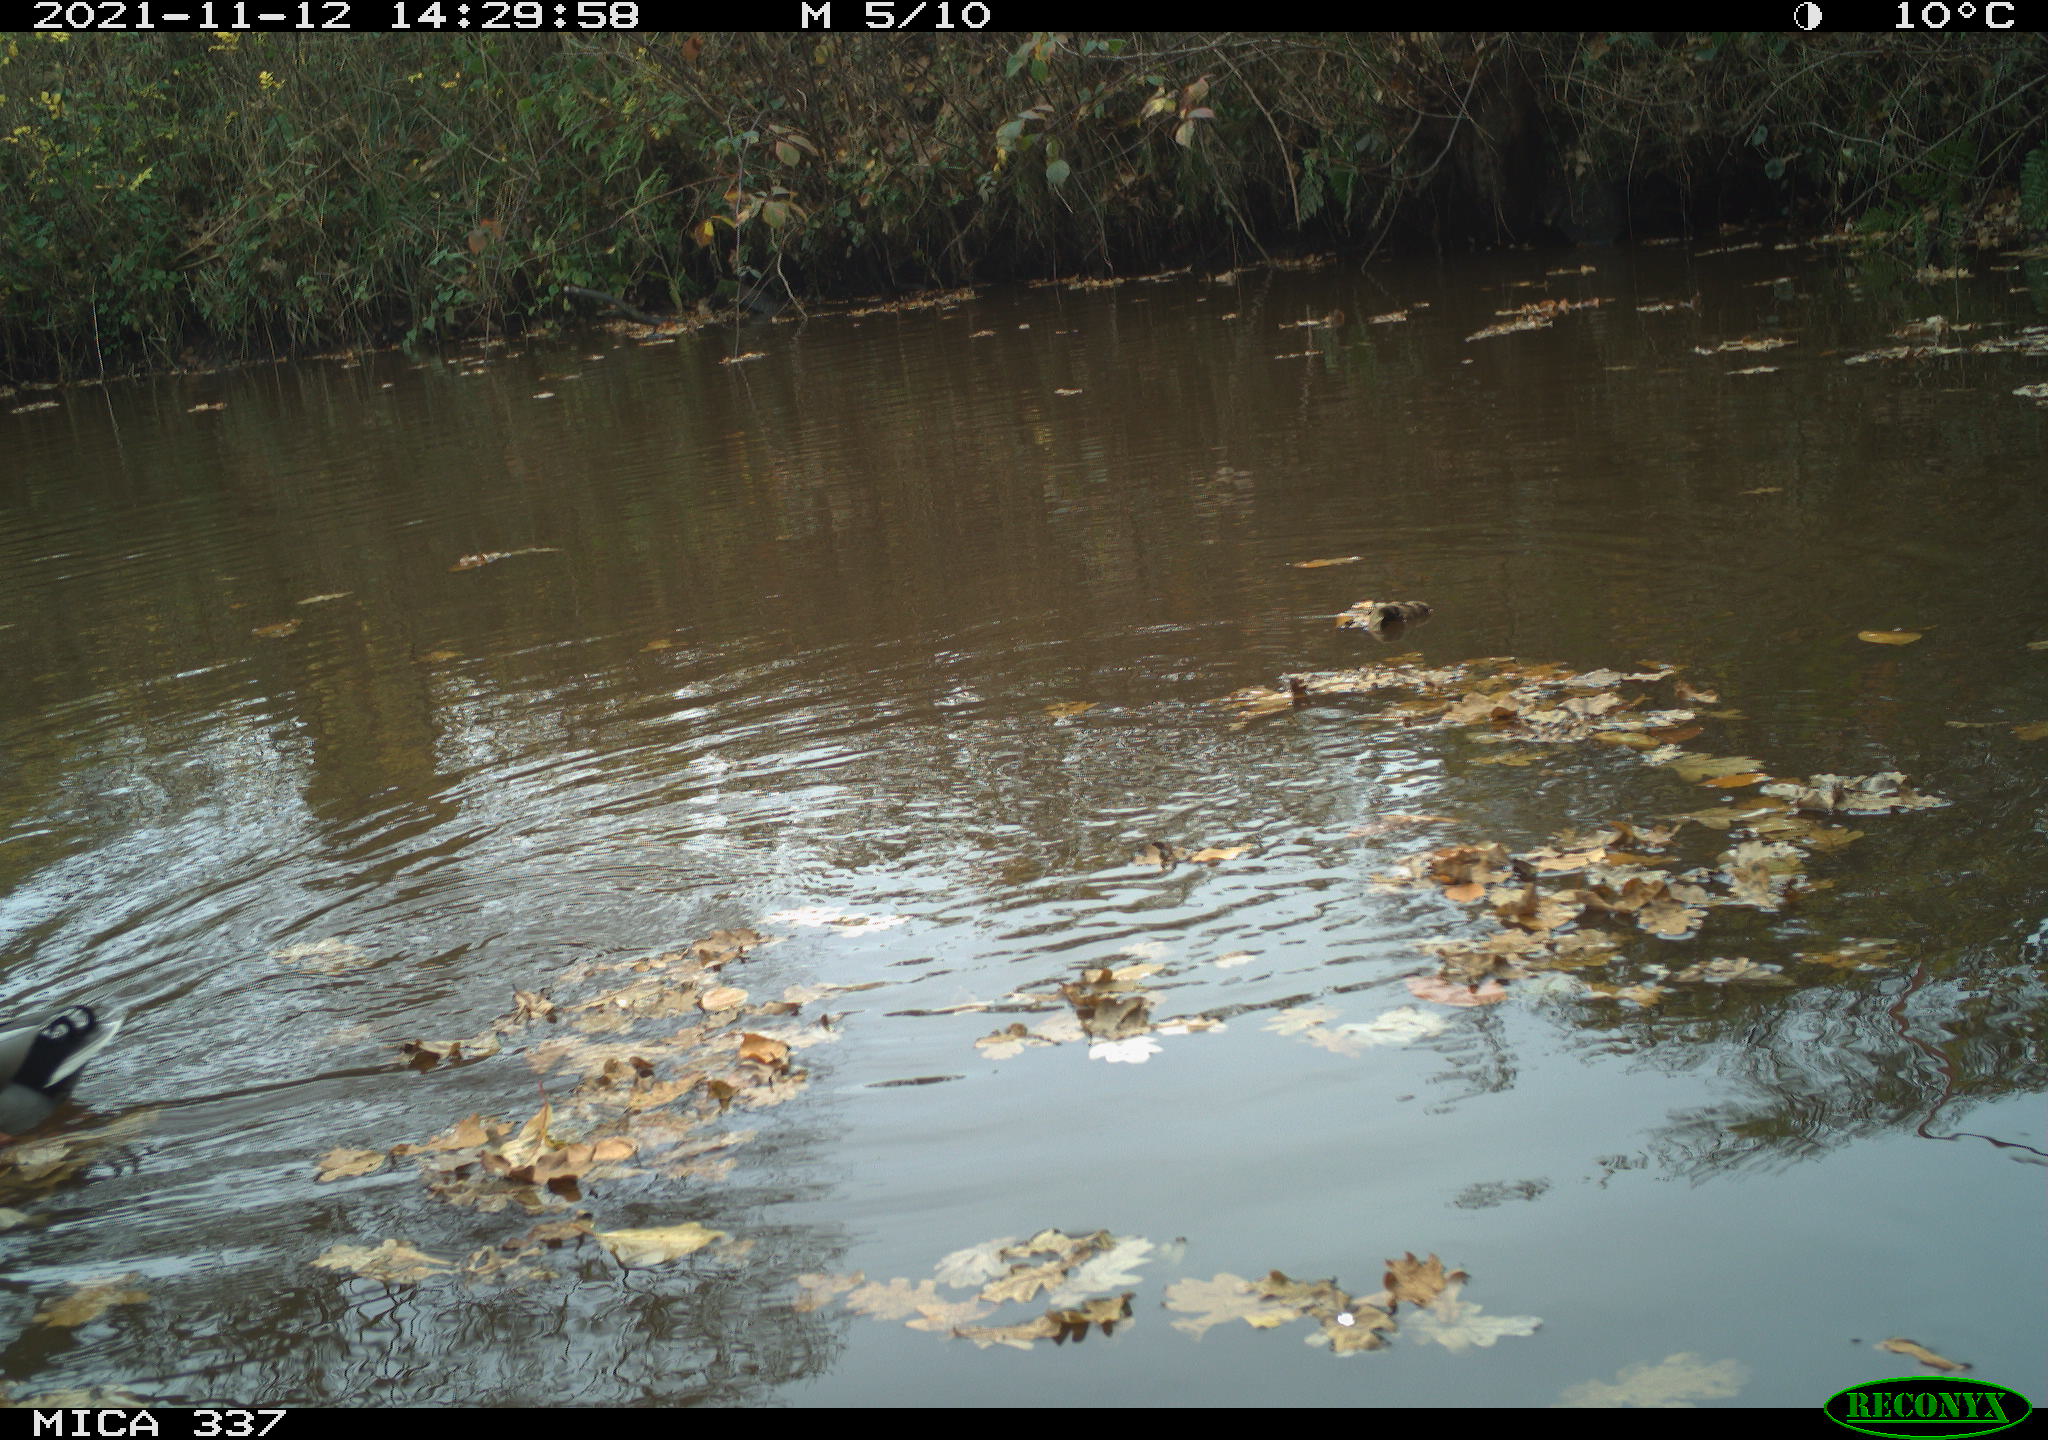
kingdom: Animalia
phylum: Chordata
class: Aves
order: Anseriformes
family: Anatidae
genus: Anas
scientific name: Anas platyrhynchos
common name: Mallard
